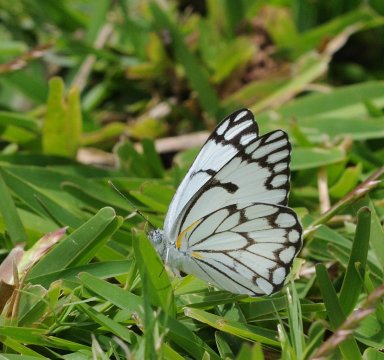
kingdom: Animalia
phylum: Arthropoda
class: Insecta
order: Lepidoptera
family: Pieridae
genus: Belenois
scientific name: Belenois aurota
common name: Pioneer White
